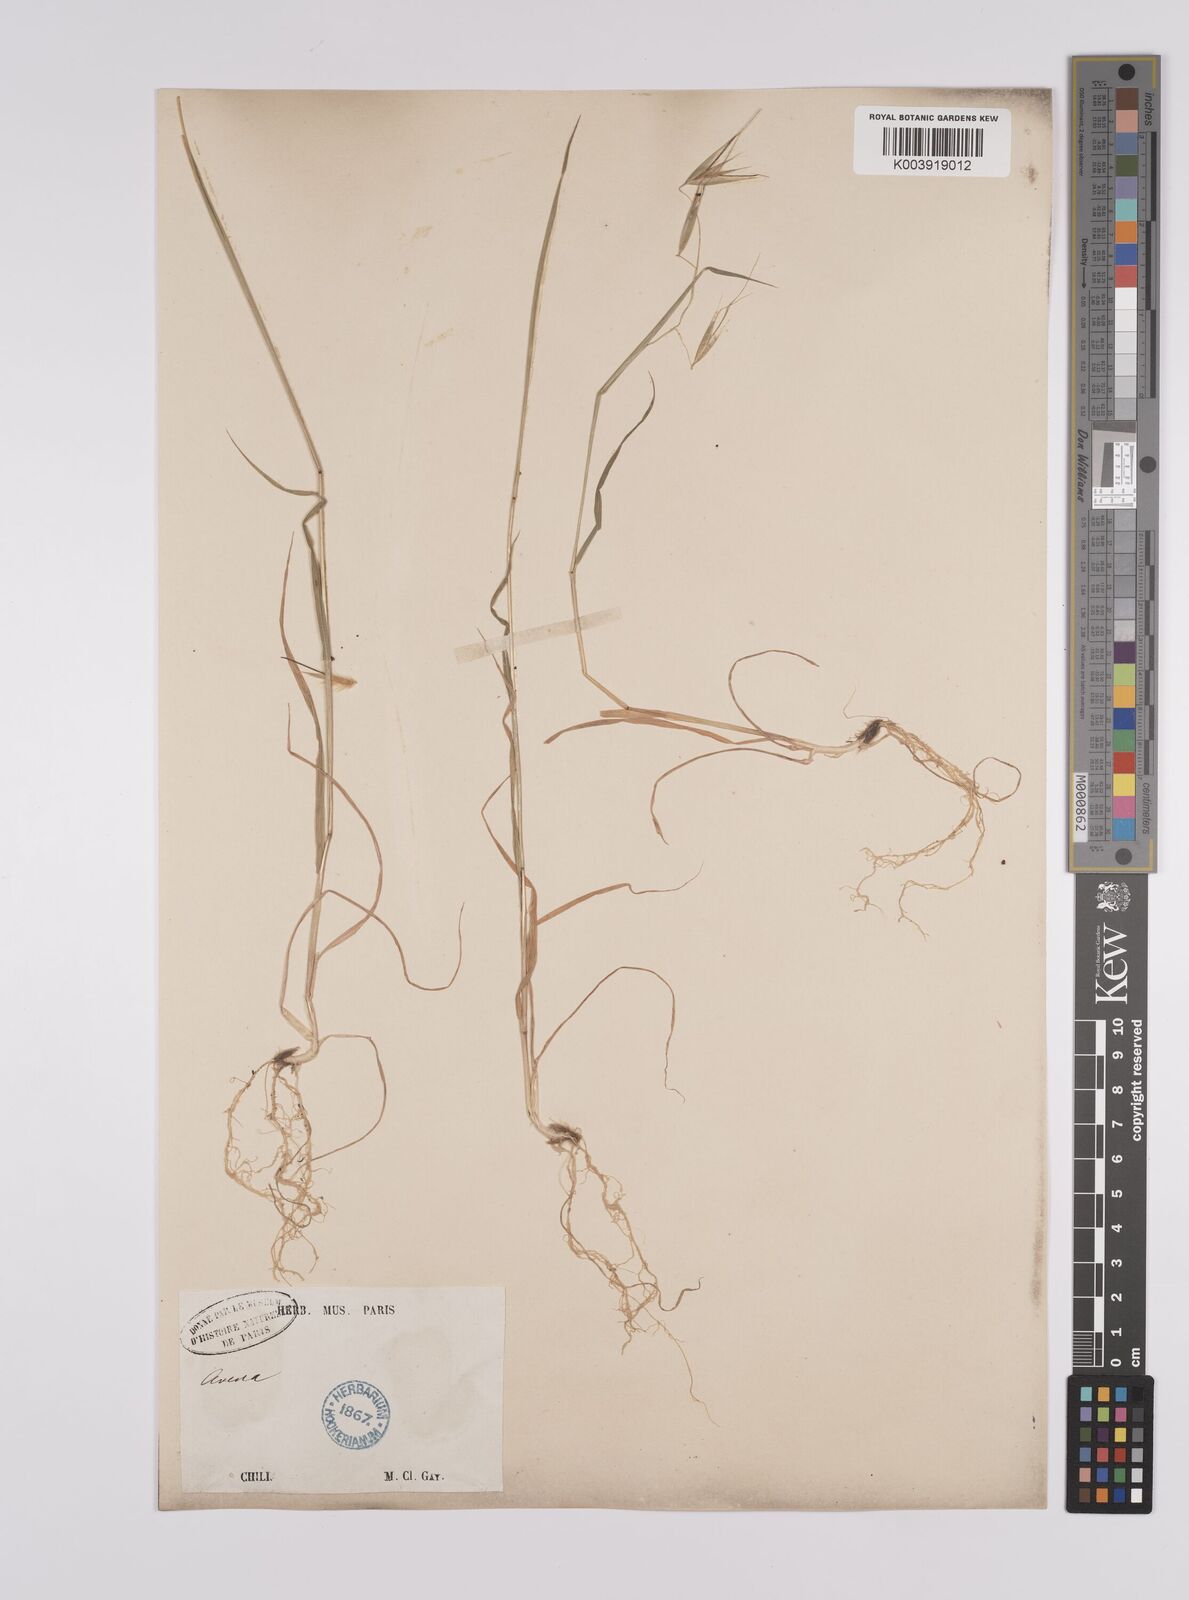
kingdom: Plantae
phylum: Tracheophyta
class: Liliopsida
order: Poales
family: Poaceae
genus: Avena
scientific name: Avena
